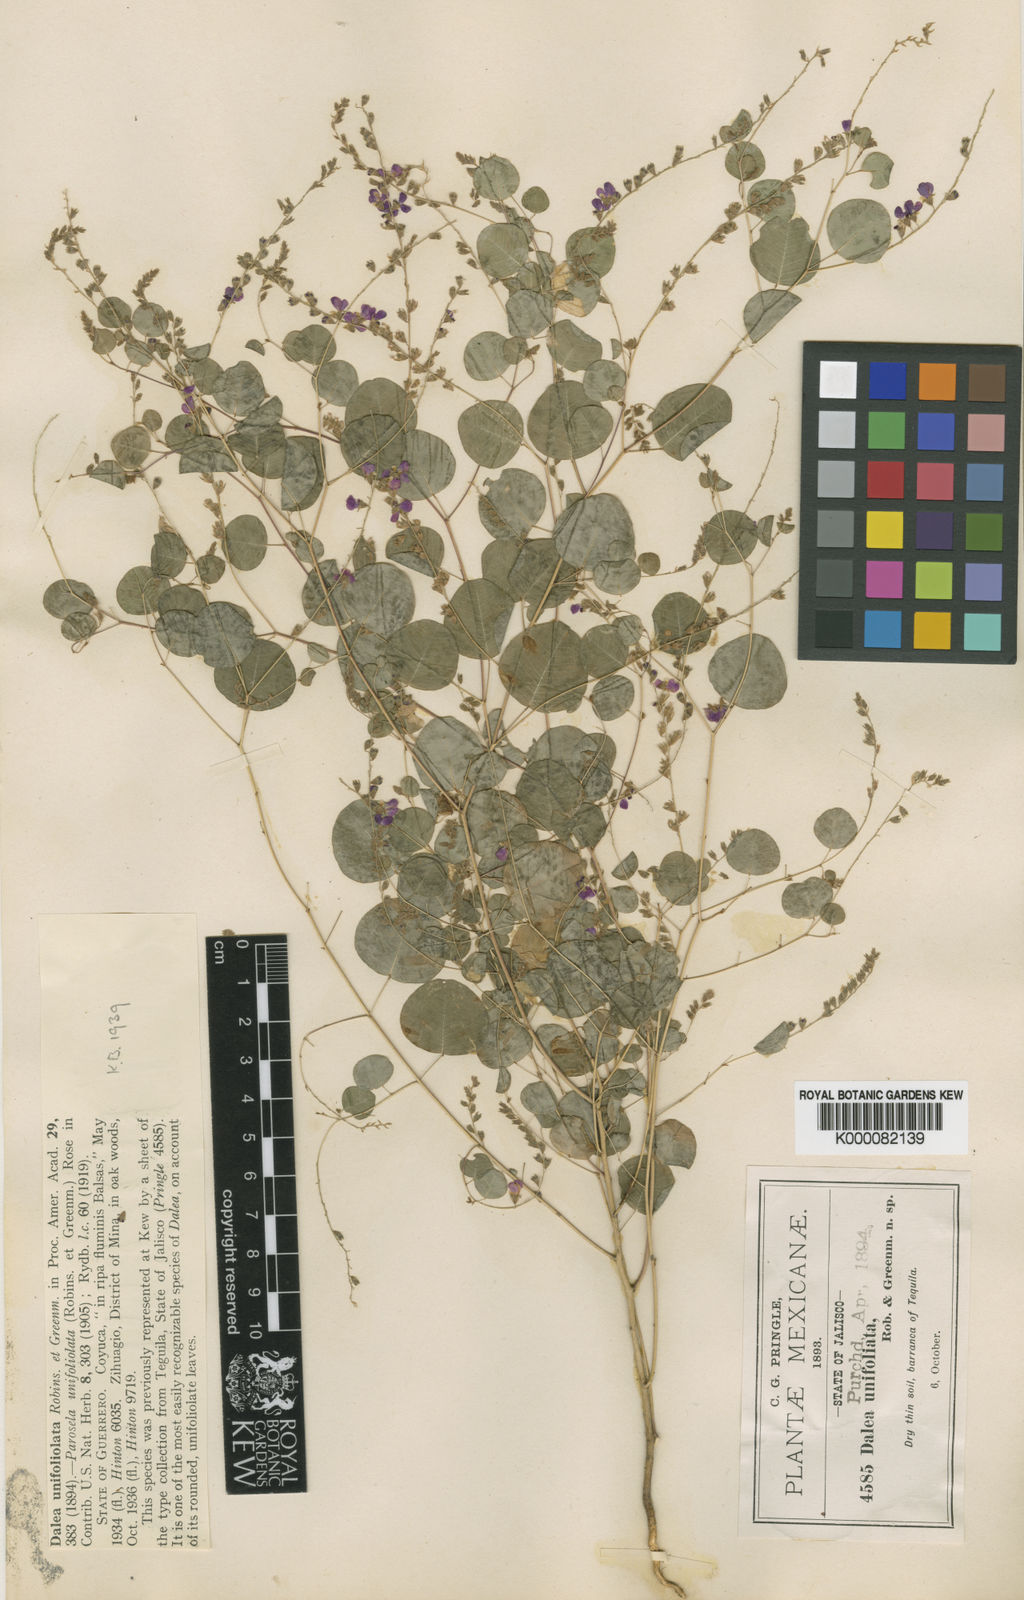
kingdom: Plantae
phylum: Tracheophyta
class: Magnoliopsida
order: Fabales
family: Fabaceae
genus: Marina
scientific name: Marina unifoliolata
